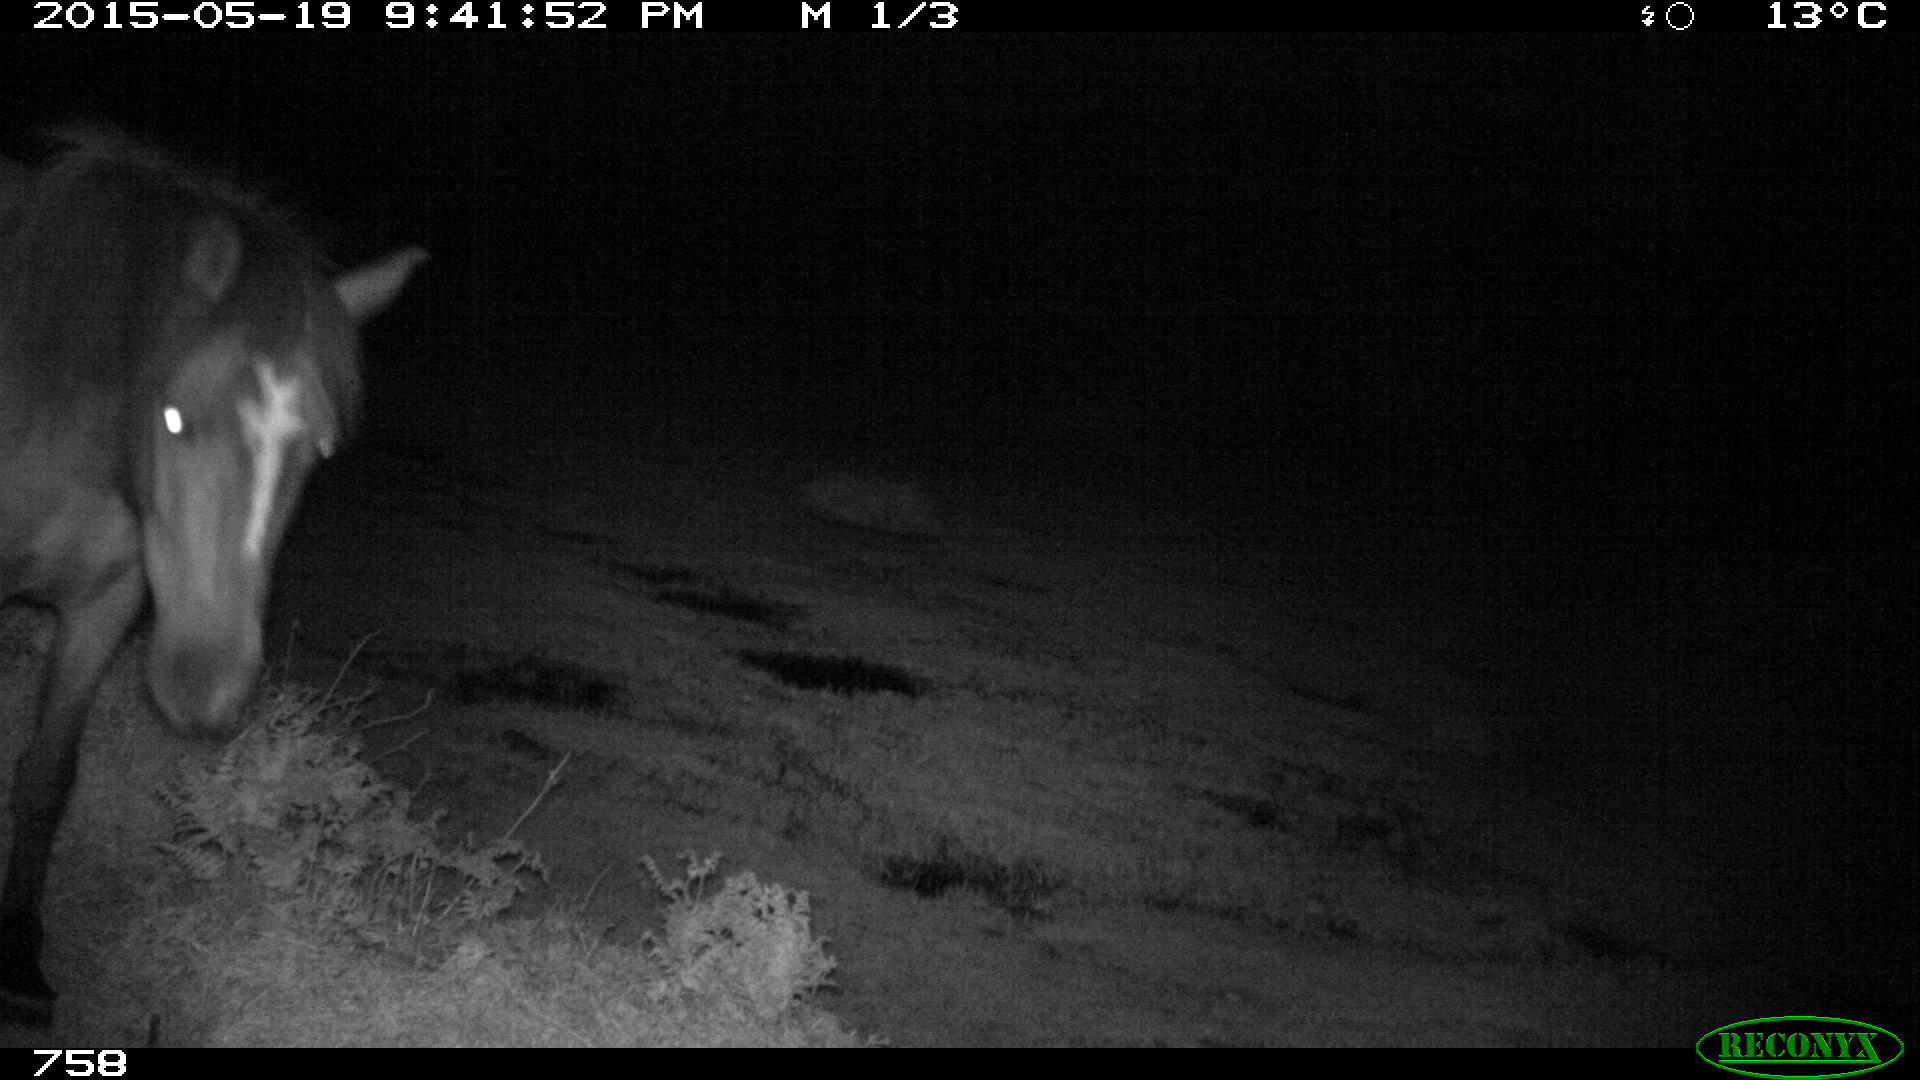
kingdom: Animalia
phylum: Chordata
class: Mammalia
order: Perissodactyla
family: Equidae
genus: Equus
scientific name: Equus caballus
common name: Horse
